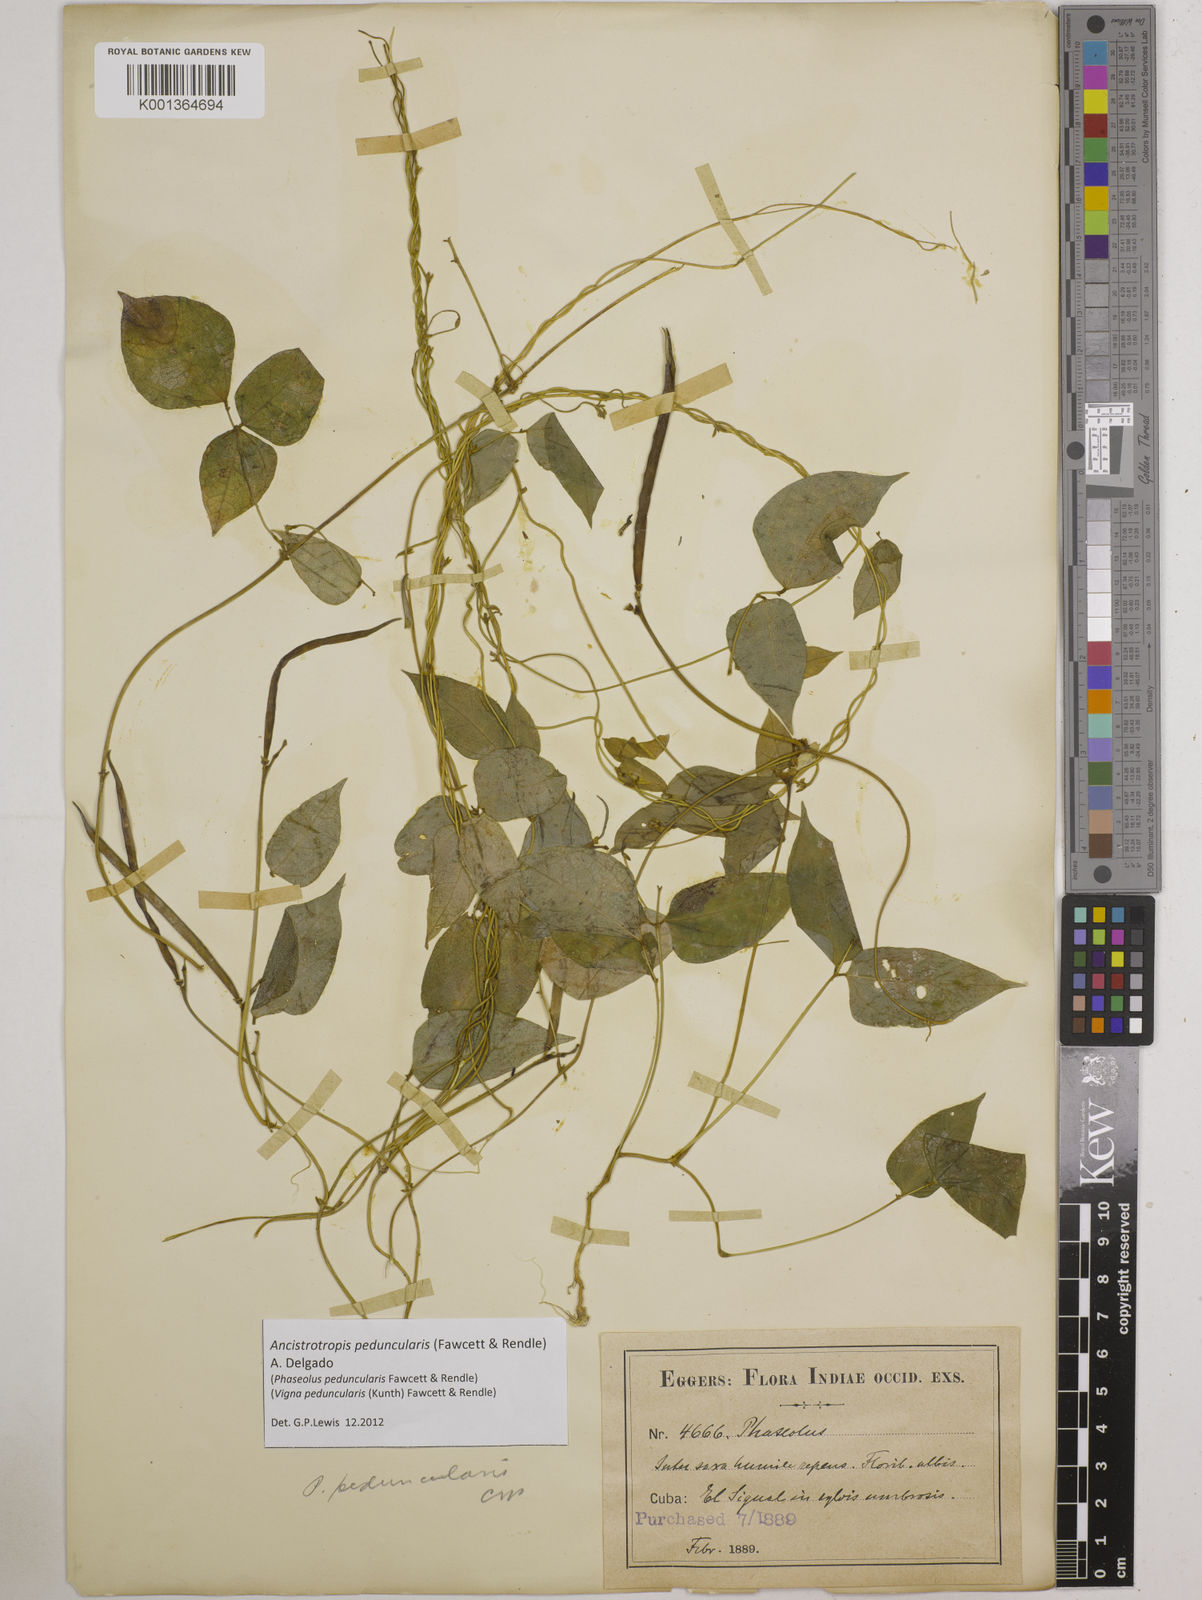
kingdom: Plantae
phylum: Tracheophyta
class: Magnoliopsida
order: Fabales
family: Fabaceae
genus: Ancistrotropis
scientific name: Ancistrotropis peduncularis
